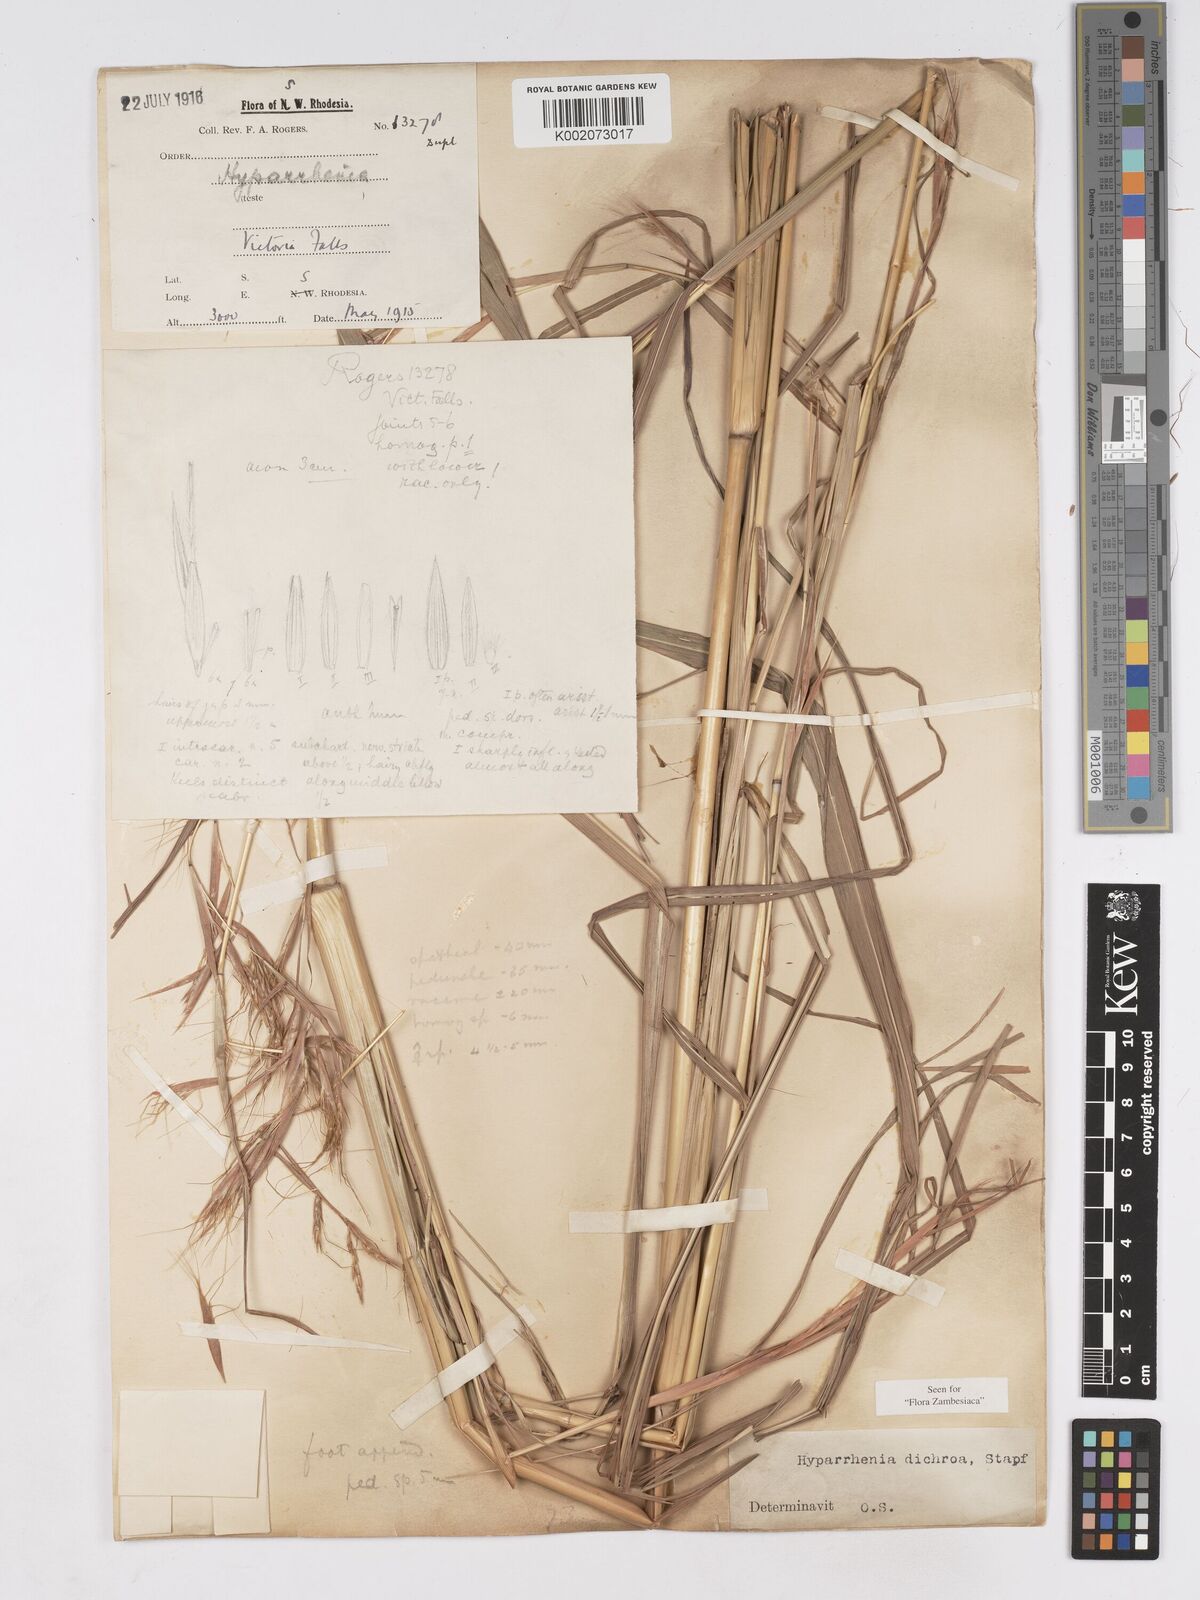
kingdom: Plantae
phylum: Tracheophyta
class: Liliopsida
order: Poales
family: Poaceae
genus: Hyparrhenia
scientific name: Hyparrhenia dichroa
